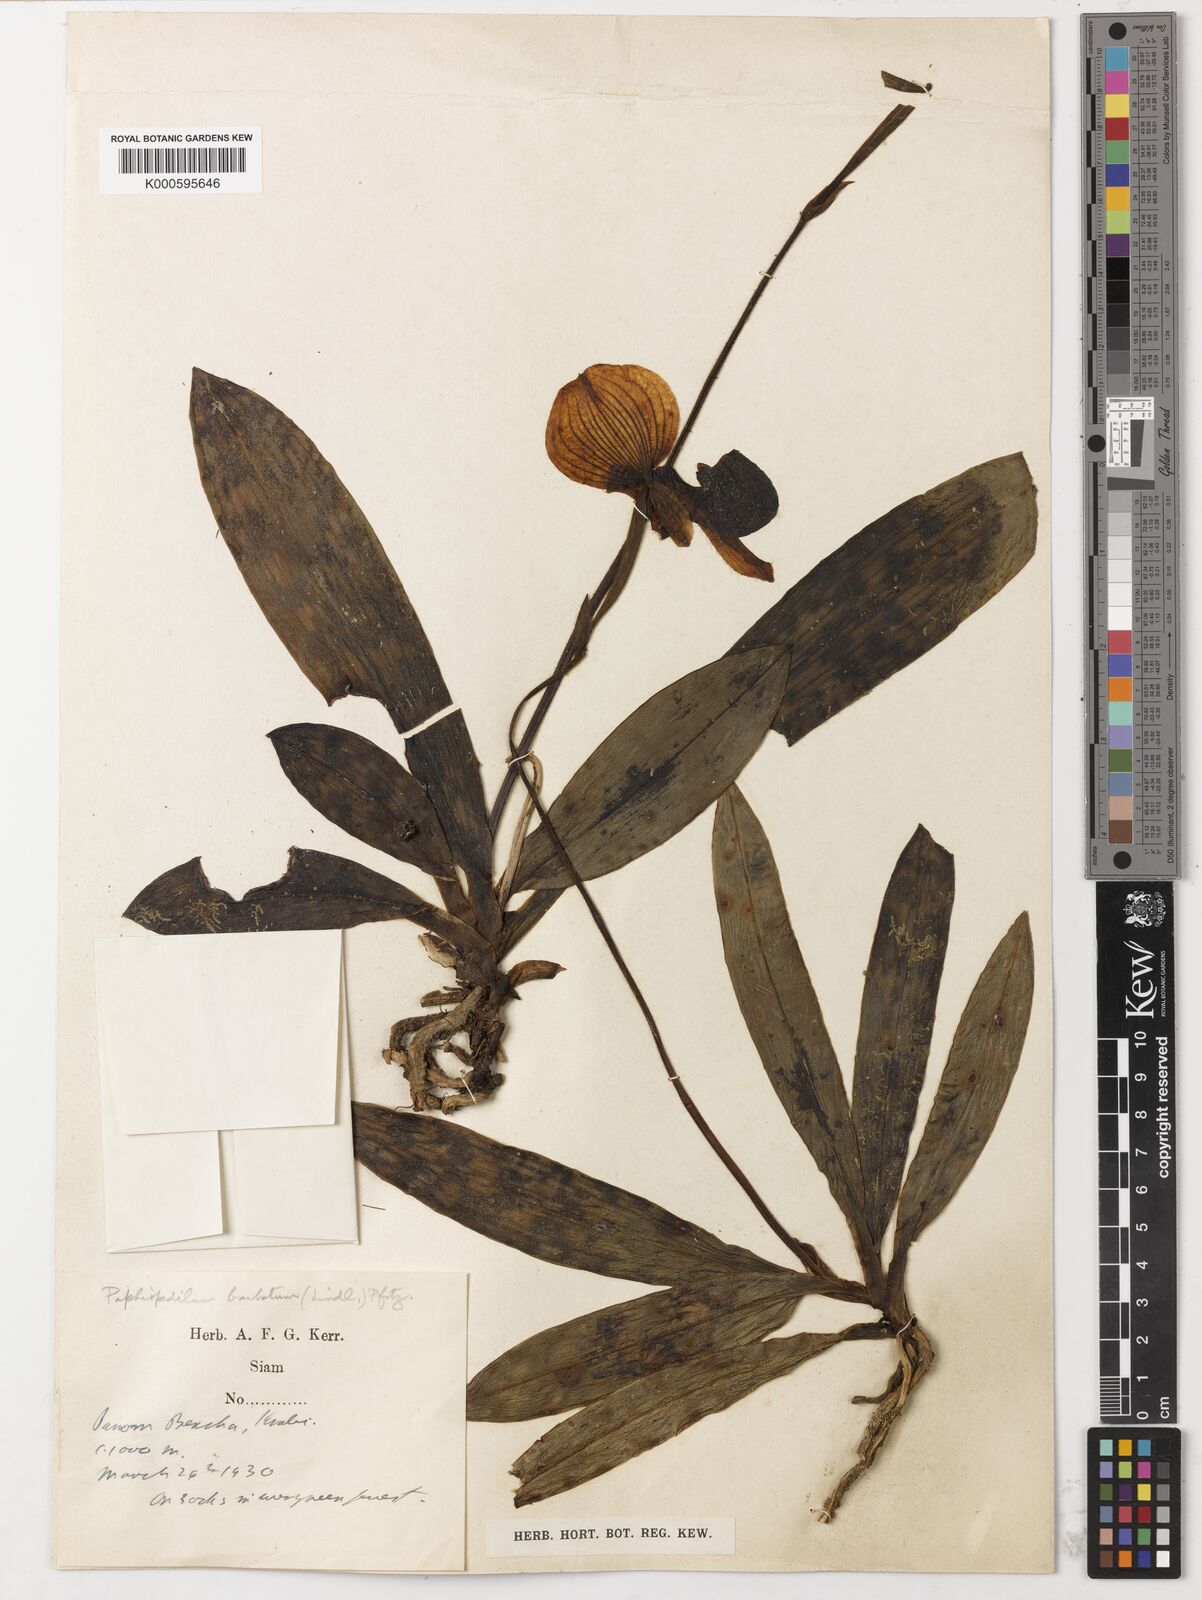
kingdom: Plantae
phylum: Tracheophyta
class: Liliopsida
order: Asparagales
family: Orchidaceae
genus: Paphiopedilum
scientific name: Paphiopedilum callosum
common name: Callus paphiopedilum
